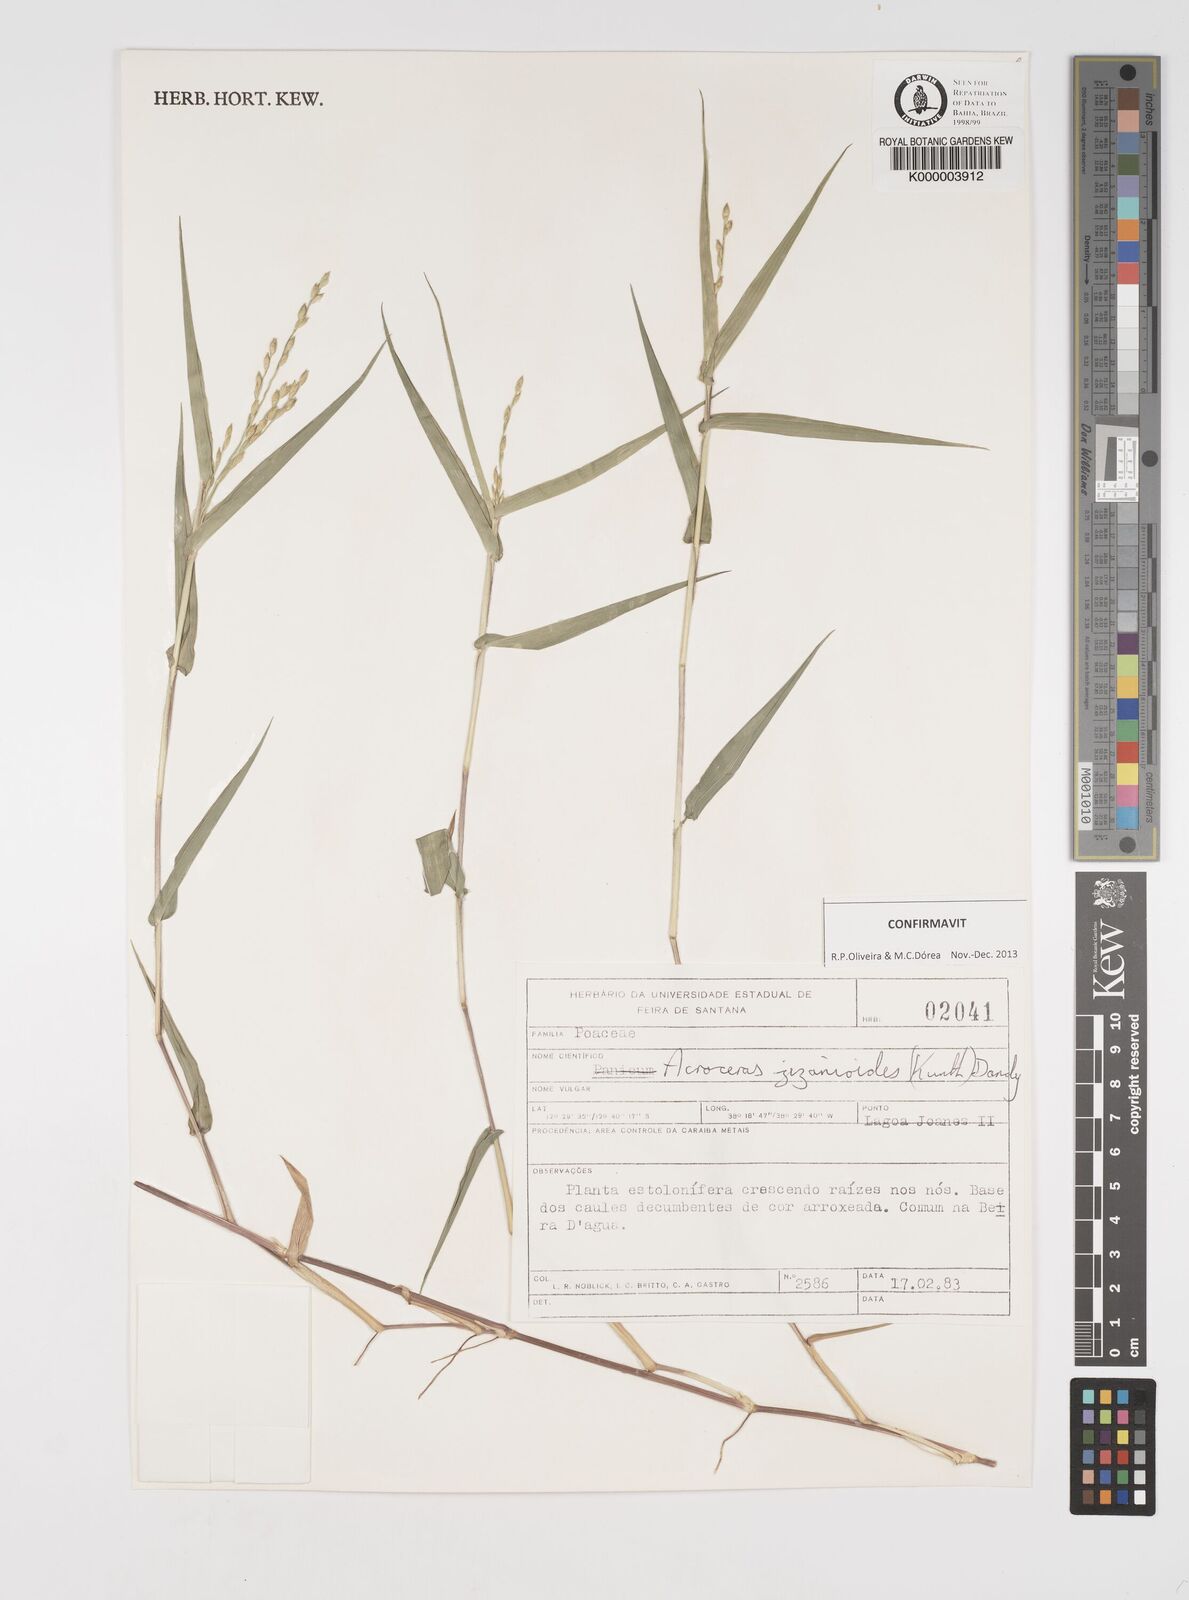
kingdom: Plantae
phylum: Tracheophyta
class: Liliopsida
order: Poales
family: Poaceae
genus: Acroceras
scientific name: Acroceras zizanioides
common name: Oat grass
